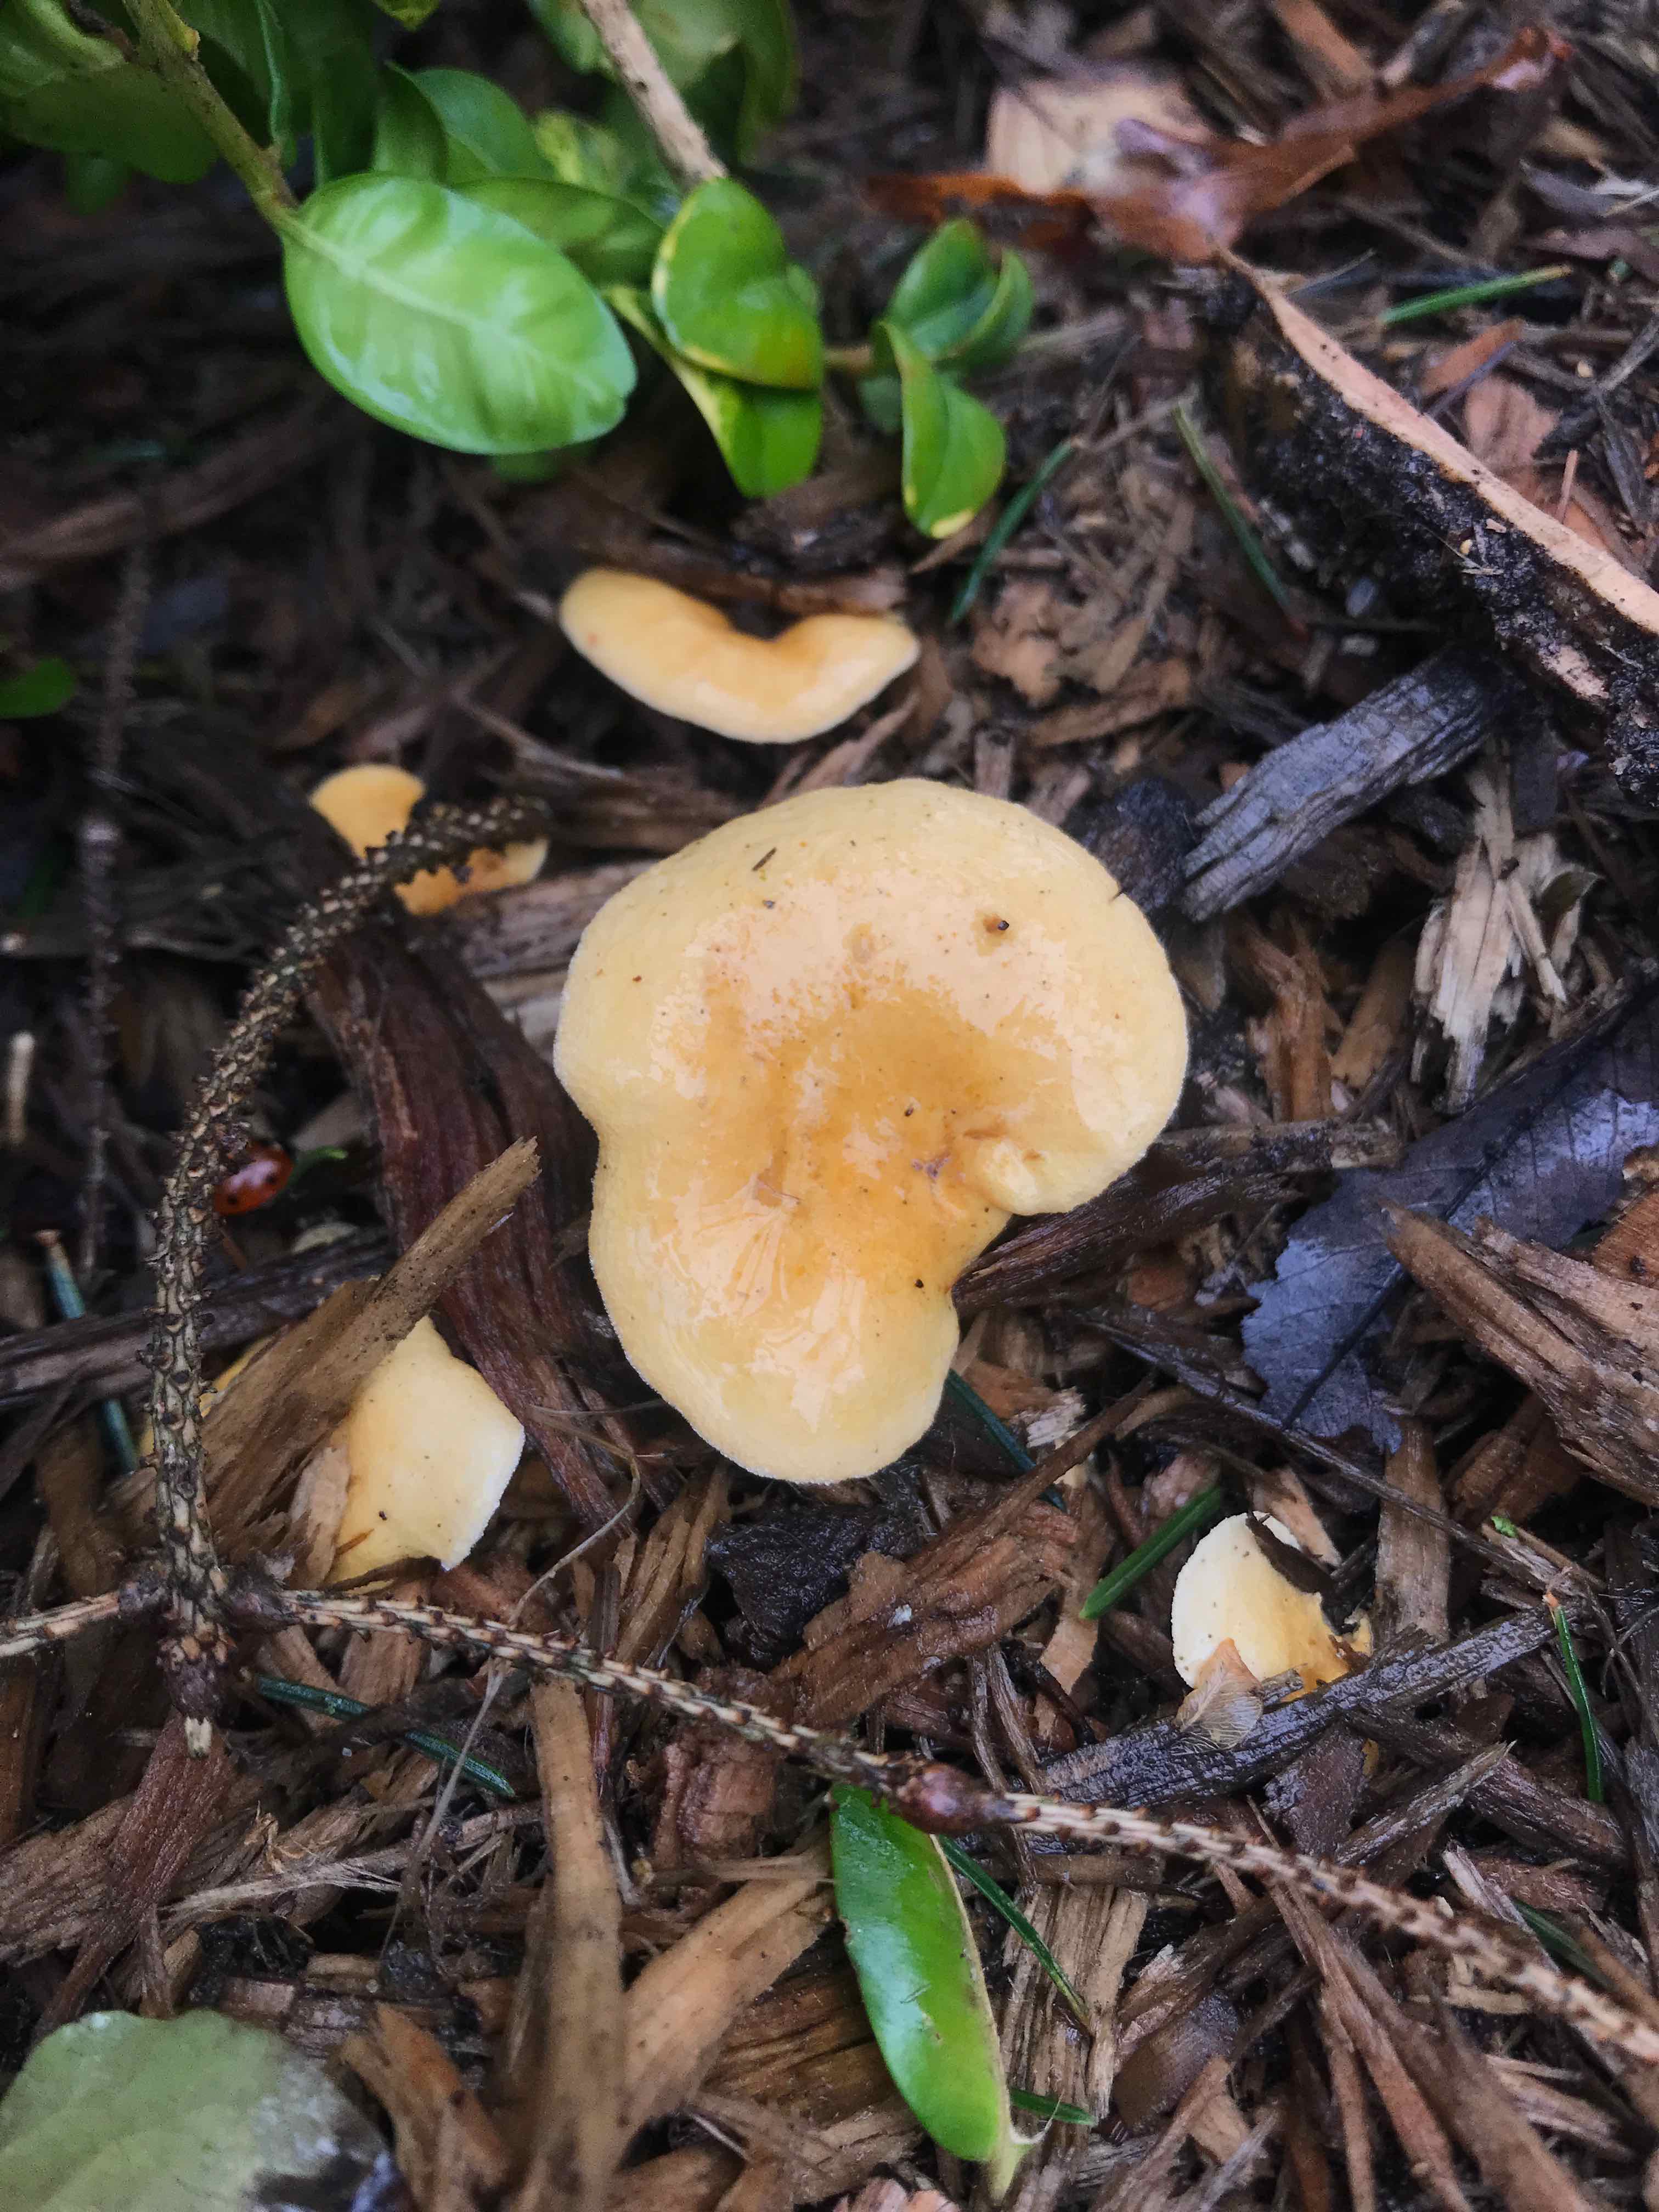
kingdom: Fungi
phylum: Basidiomycota
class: Agaricomycetes
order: Boletales
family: Hygrophoropsidaceae
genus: Hygrophoropsis
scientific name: Hygrophoropsis aurantiaca
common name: almindelig orangekantarel
